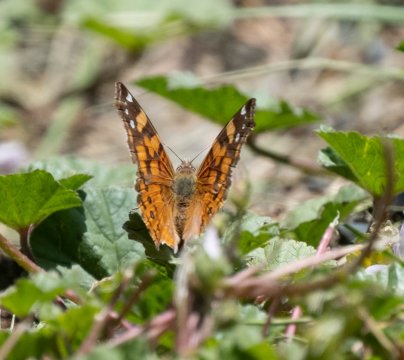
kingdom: Animalia
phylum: Arthropoda
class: Insecta
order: Lepidoptera
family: Nymphalidae
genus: Vanessa
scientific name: Vanessa annabella
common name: West Coast Lady
